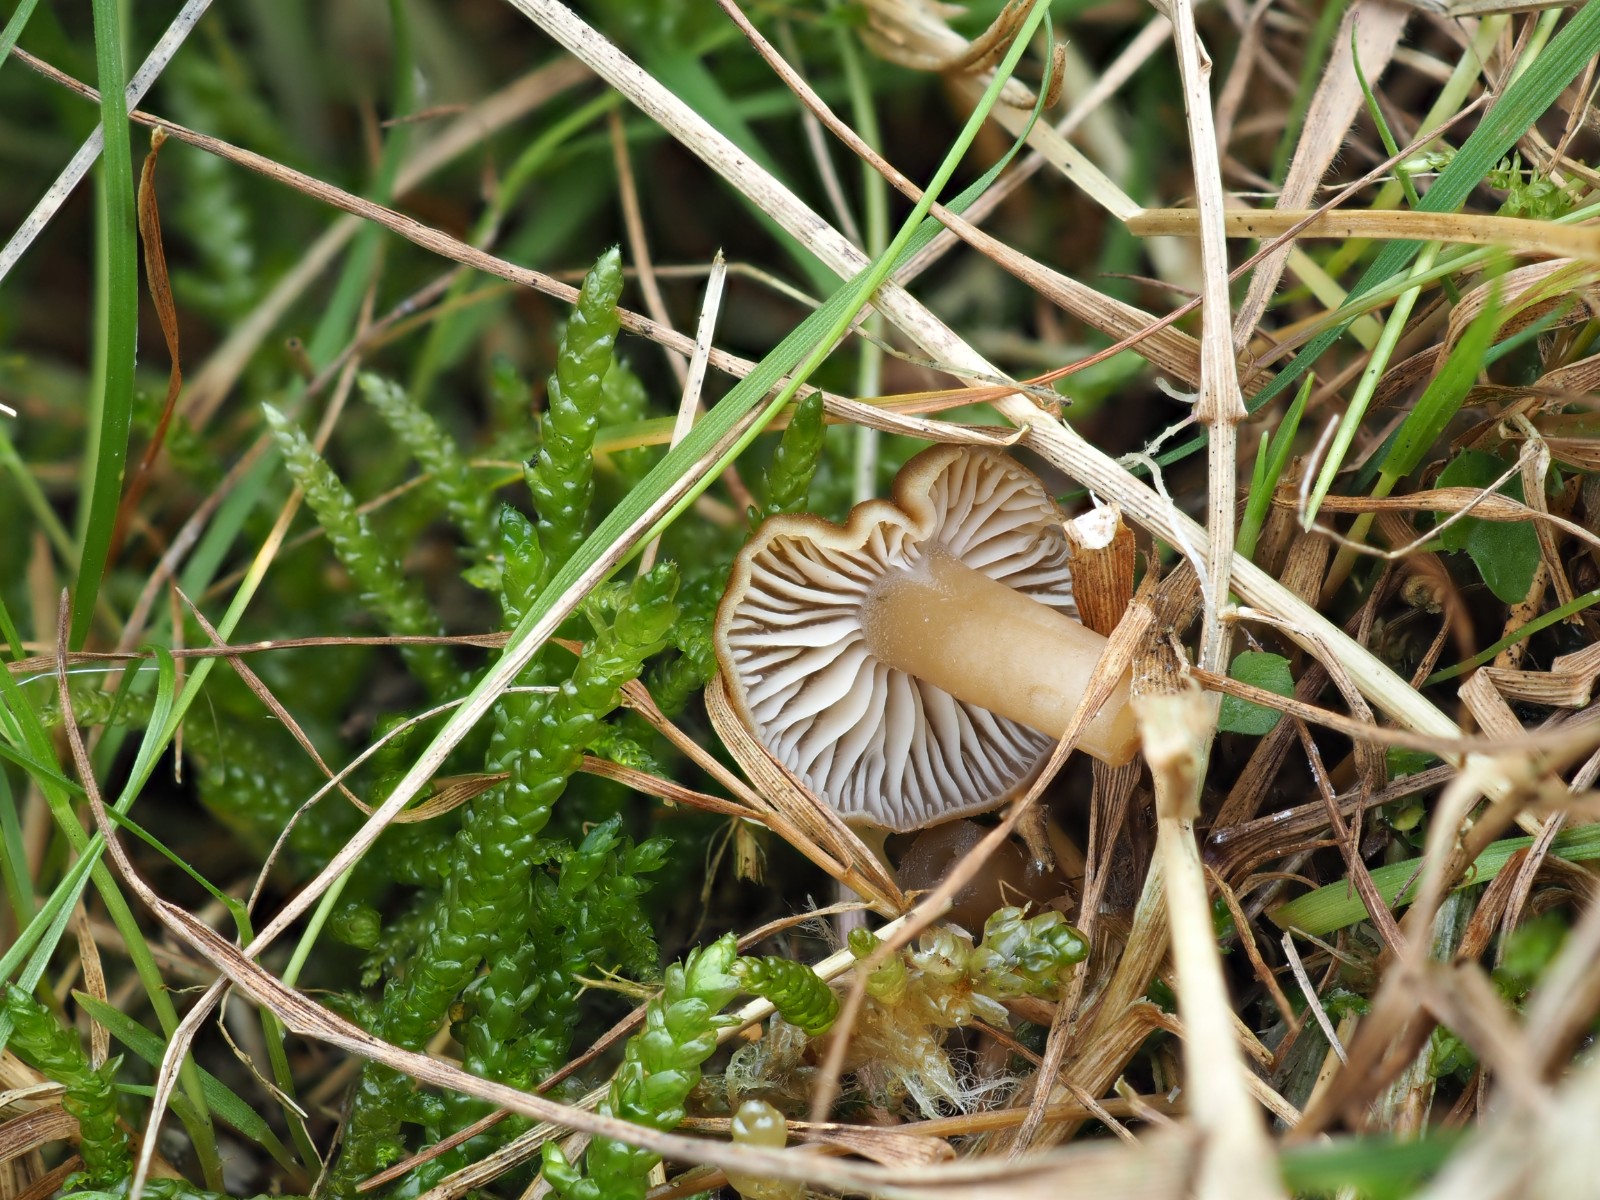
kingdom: Fungi
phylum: Basidiomycota
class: Agaricomycetes
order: Agaricales
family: Clavariaceae
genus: Camarophyllopsis
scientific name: Camarophyllopsis schulzeri
